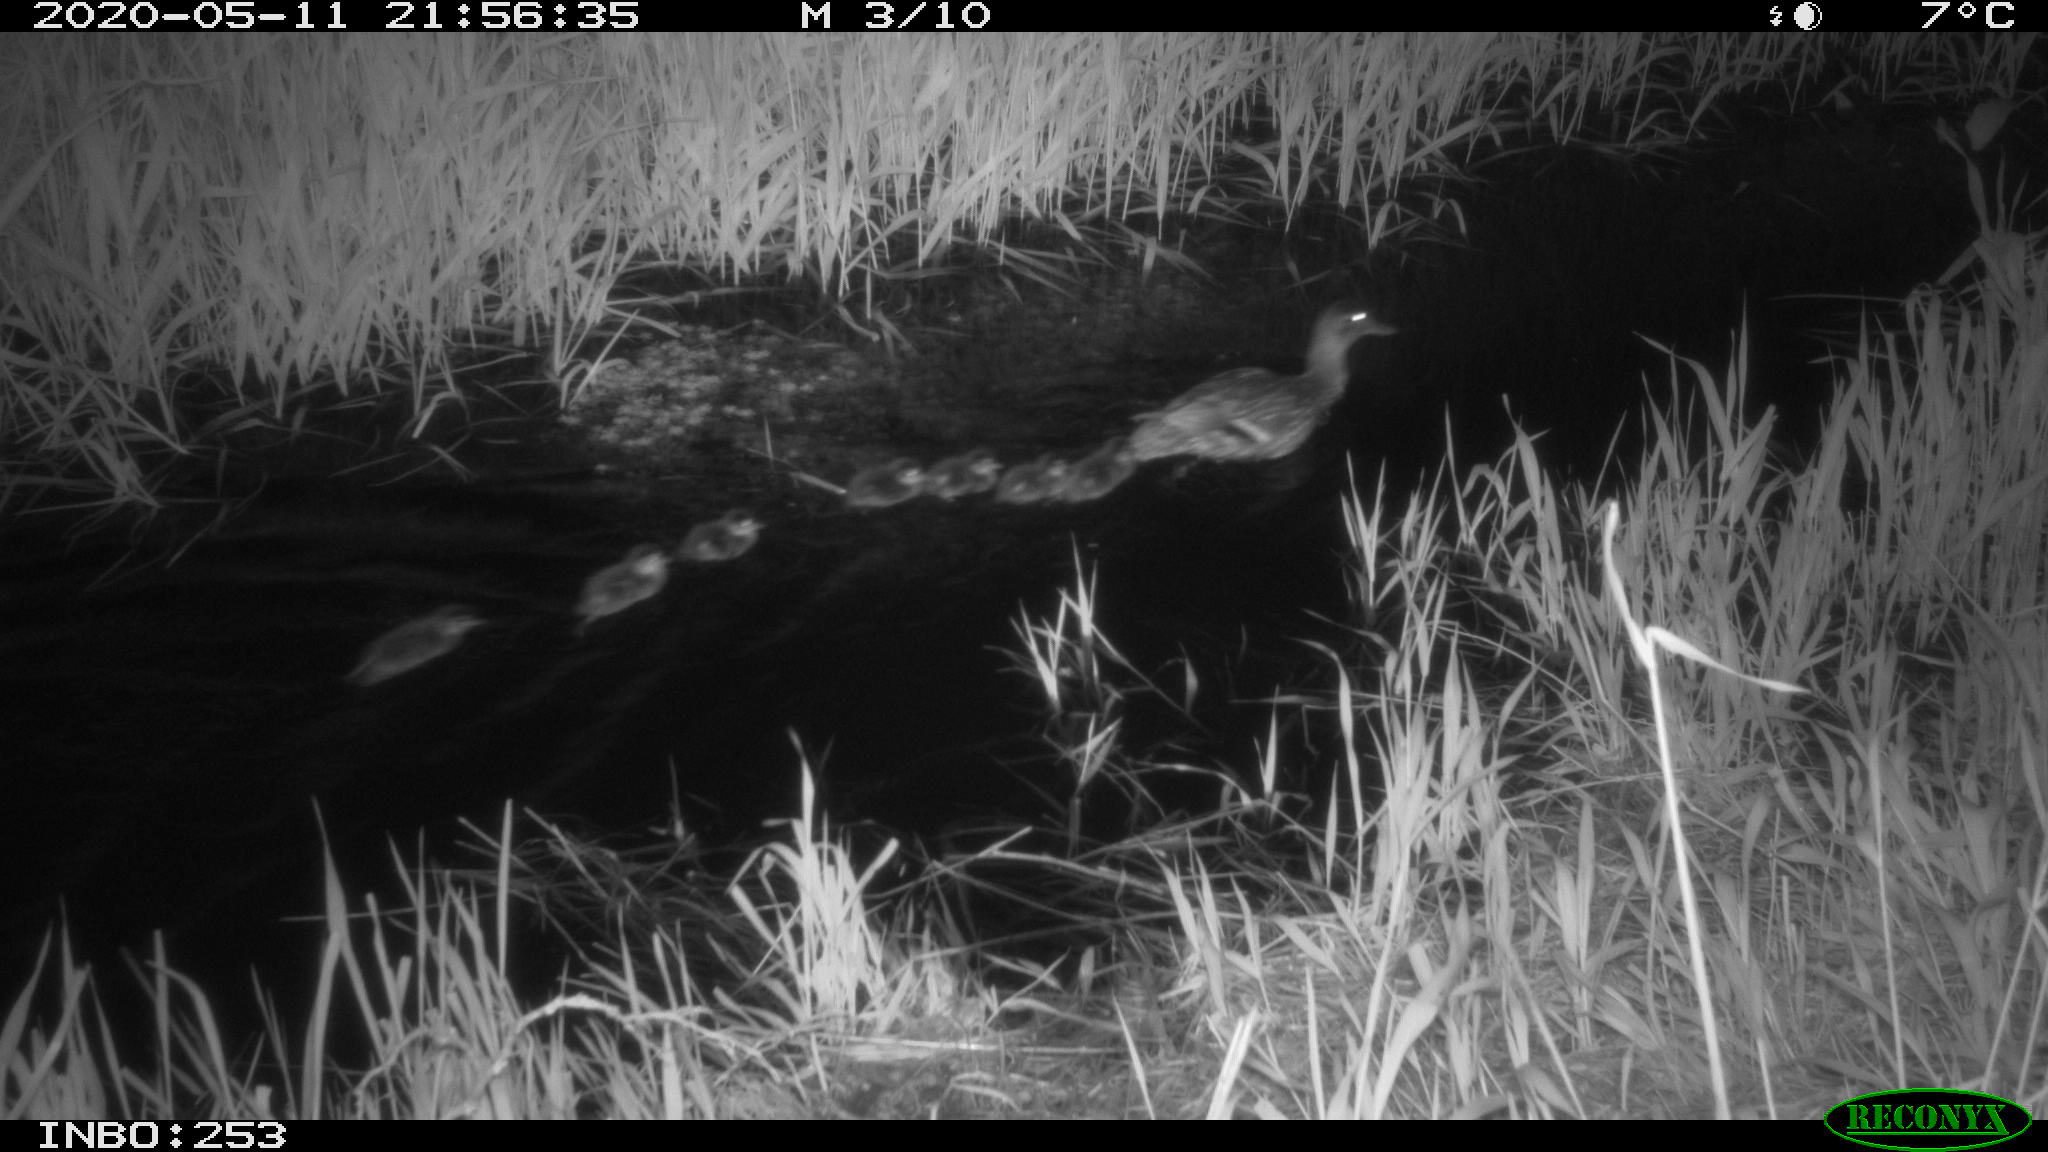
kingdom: Animalia
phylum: Chordata
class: Aves
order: Anseriformes
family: Anatidae
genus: Anas
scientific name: Anas platyrhynchos
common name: Mallard
